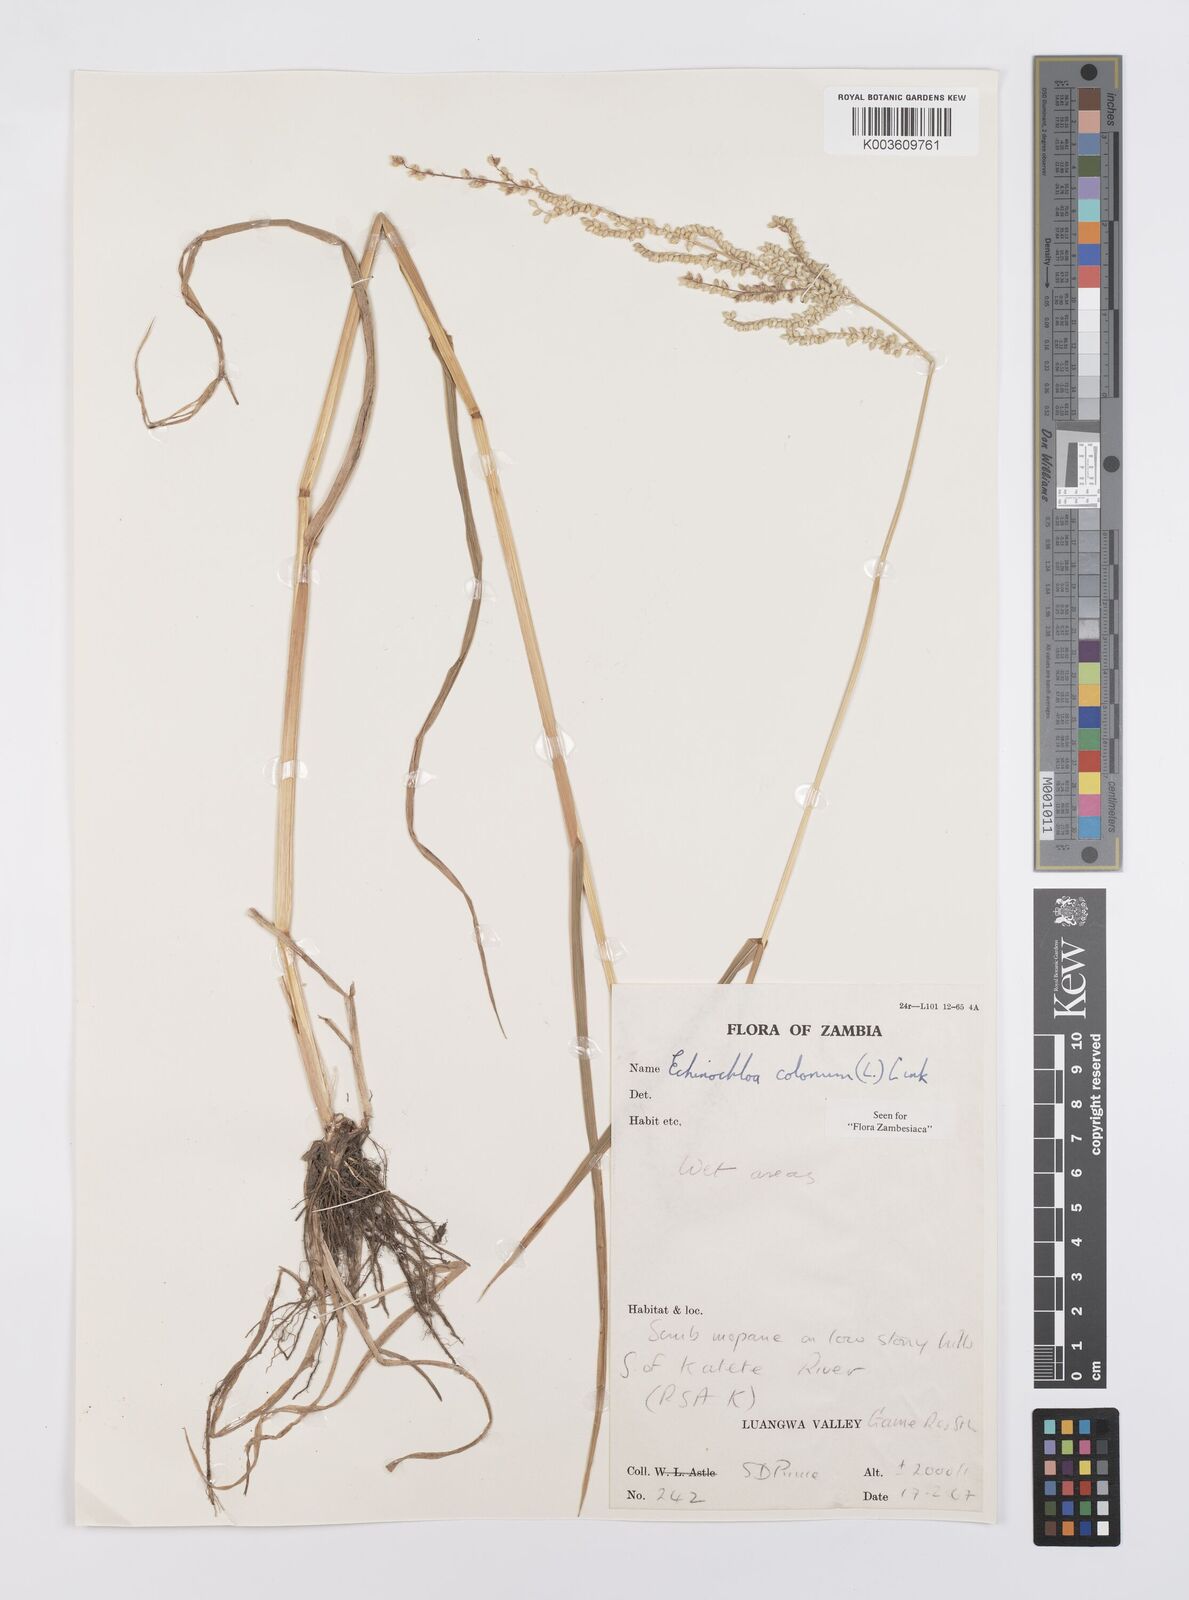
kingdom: Plantae
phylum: Tracheophyta
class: Liliopsida
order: Poales
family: Poaceae
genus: Echinochloa
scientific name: Echinochloa colonum
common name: Jungle rice
